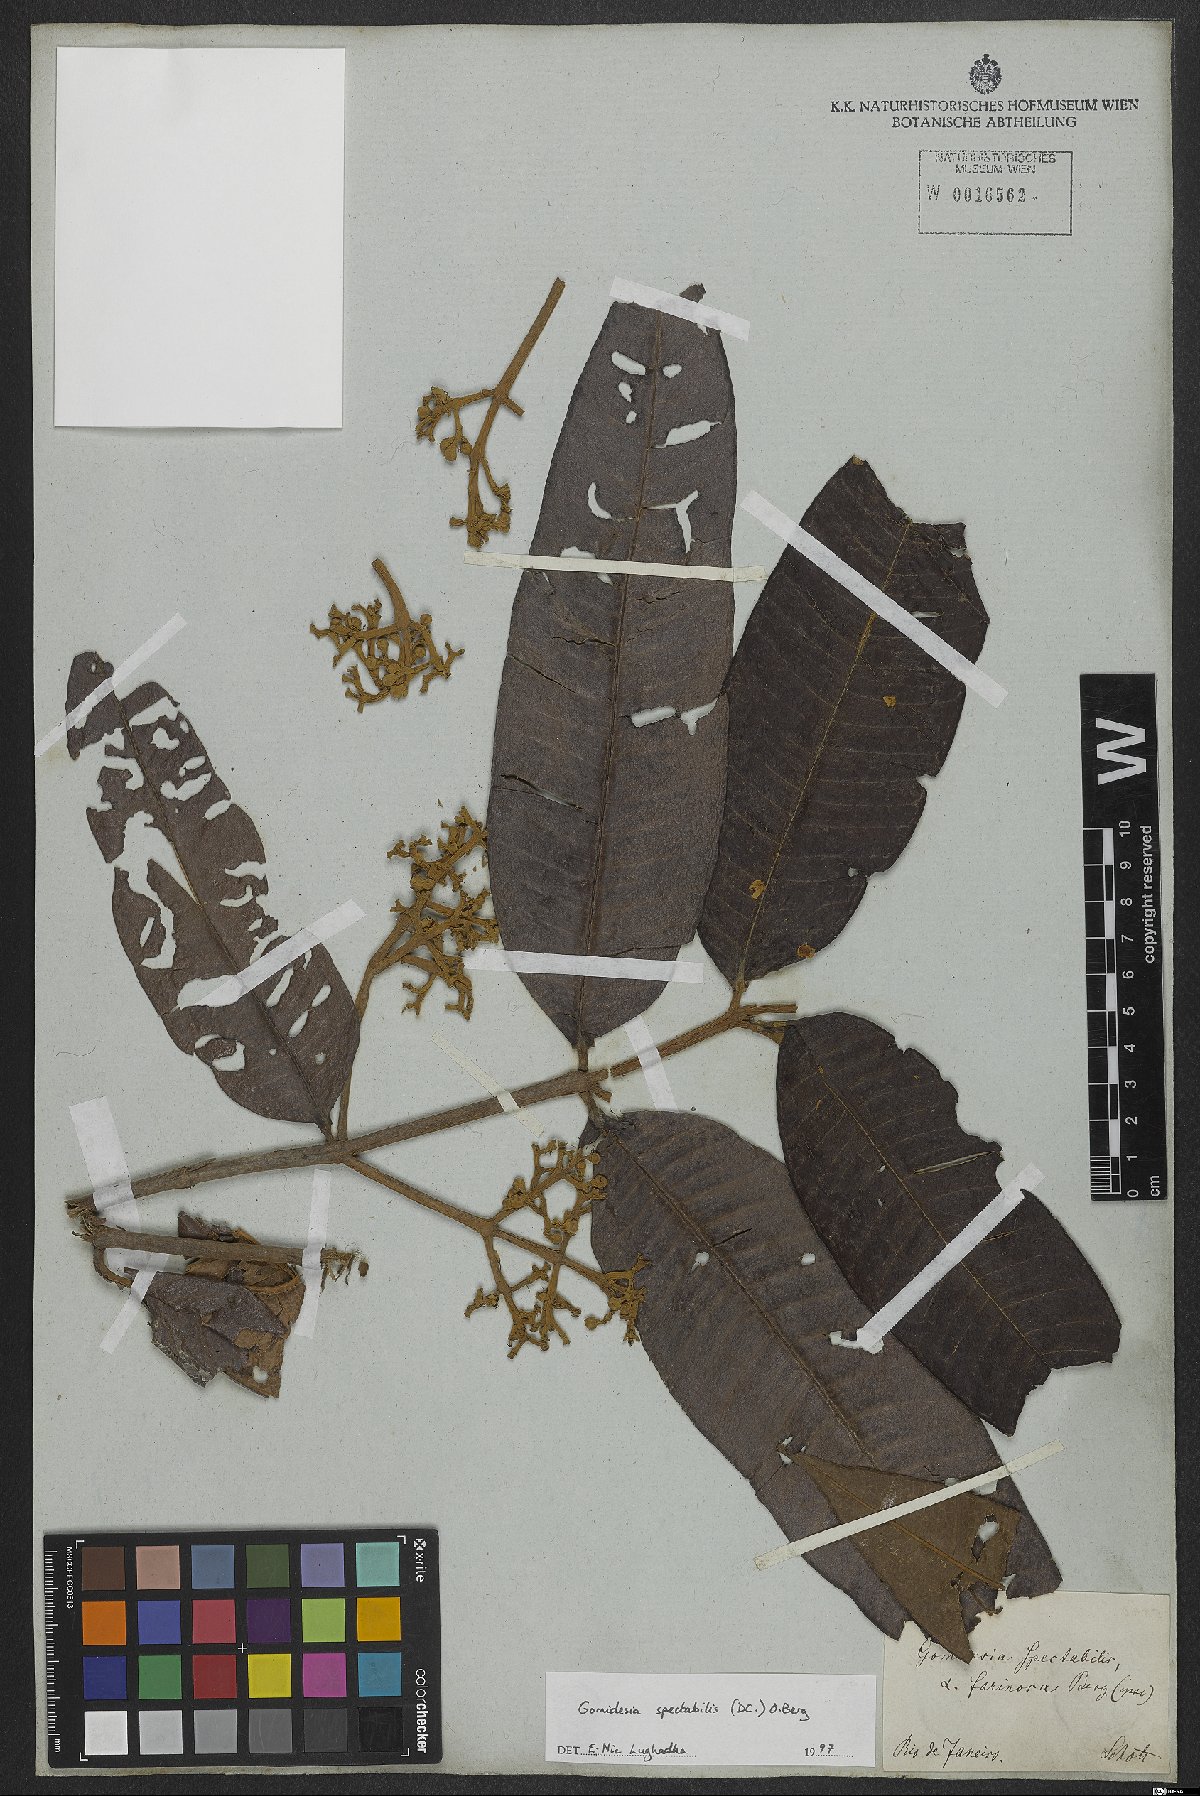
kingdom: Plantae
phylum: Tracheophyta
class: Magnoliopsida
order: Myrtales
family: Myrtaceae
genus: Myrcia
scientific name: Myrcia spectabilis
